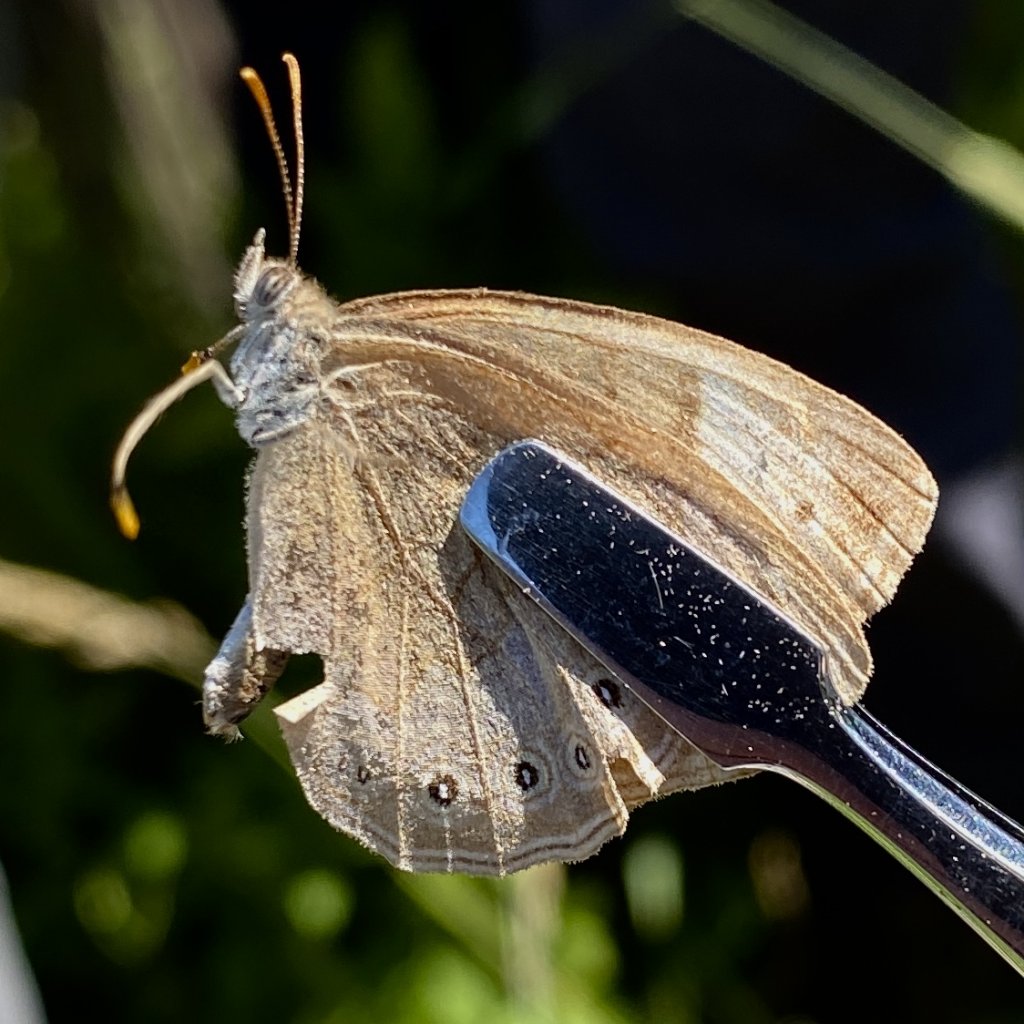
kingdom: Animalia
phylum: Arthropoda
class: Insecta
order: Lepidoptera
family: Nymphalidae
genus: Lethe
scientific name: Lethe eurydice
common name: Eyed Brown
